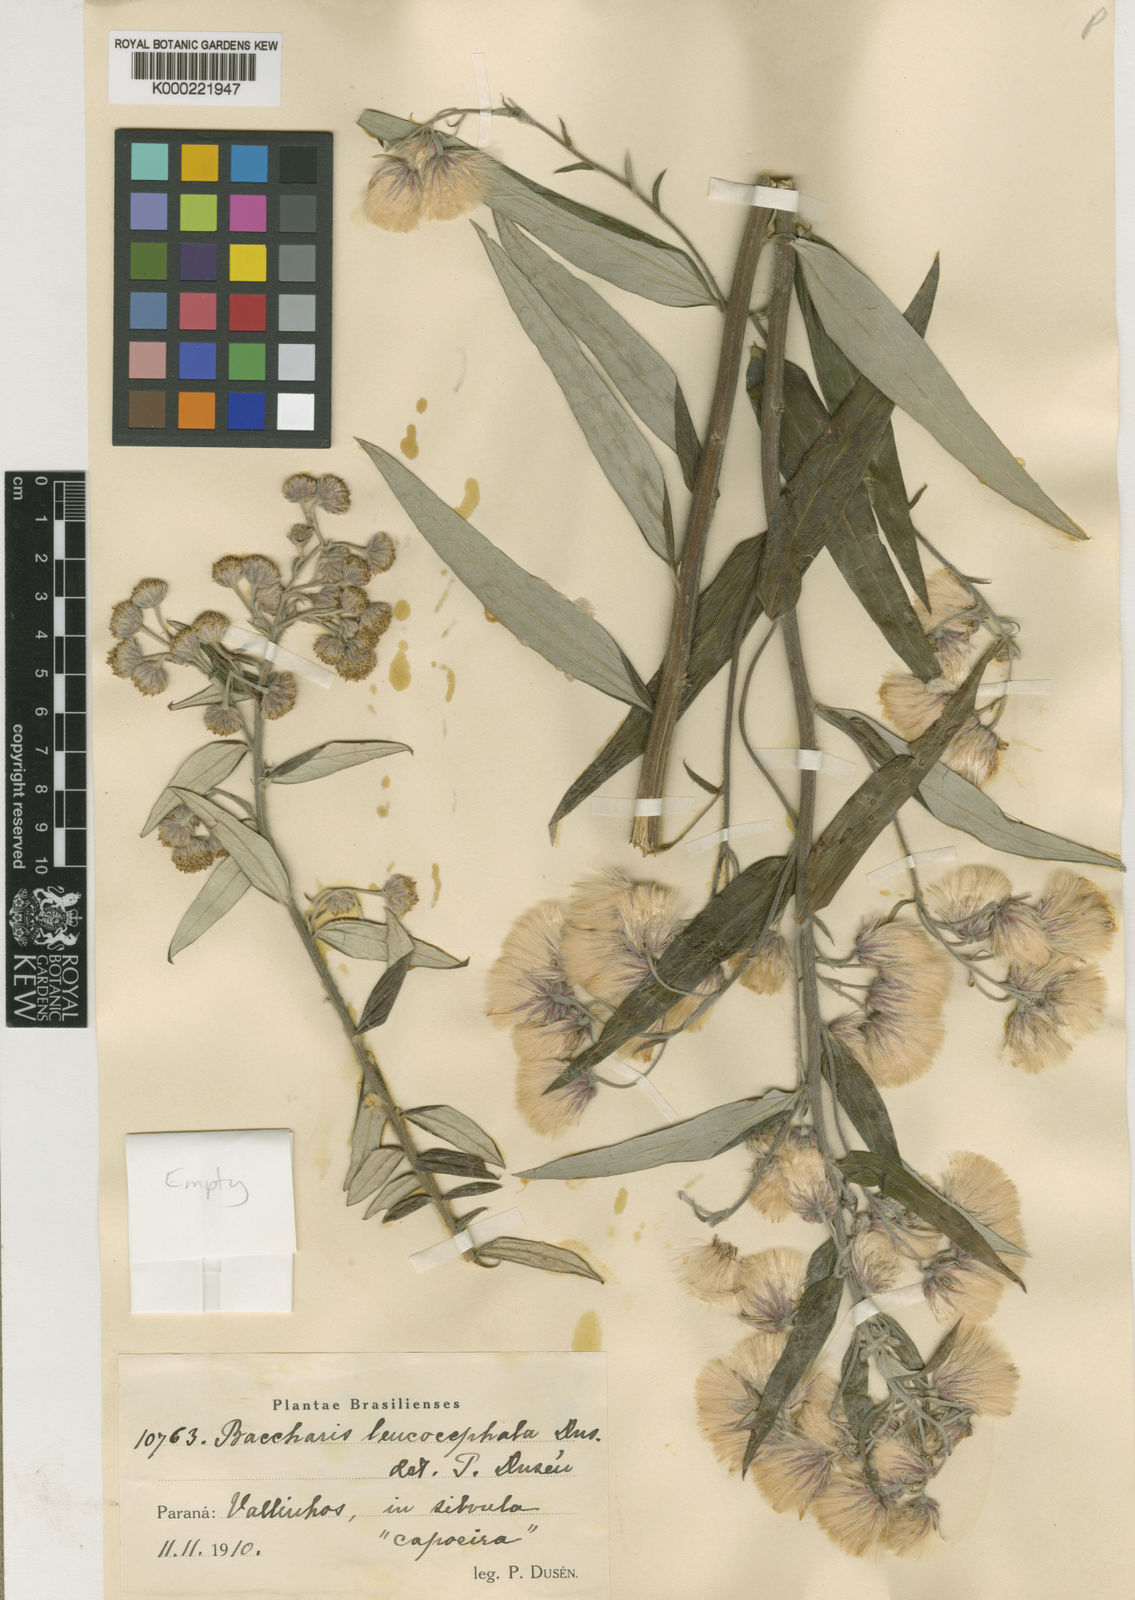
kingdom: Plantae
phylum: Tracheophyta
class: Magnoliopsida
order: Asterales
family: Asteraceae
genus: Baccharis
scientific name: Baccharis
